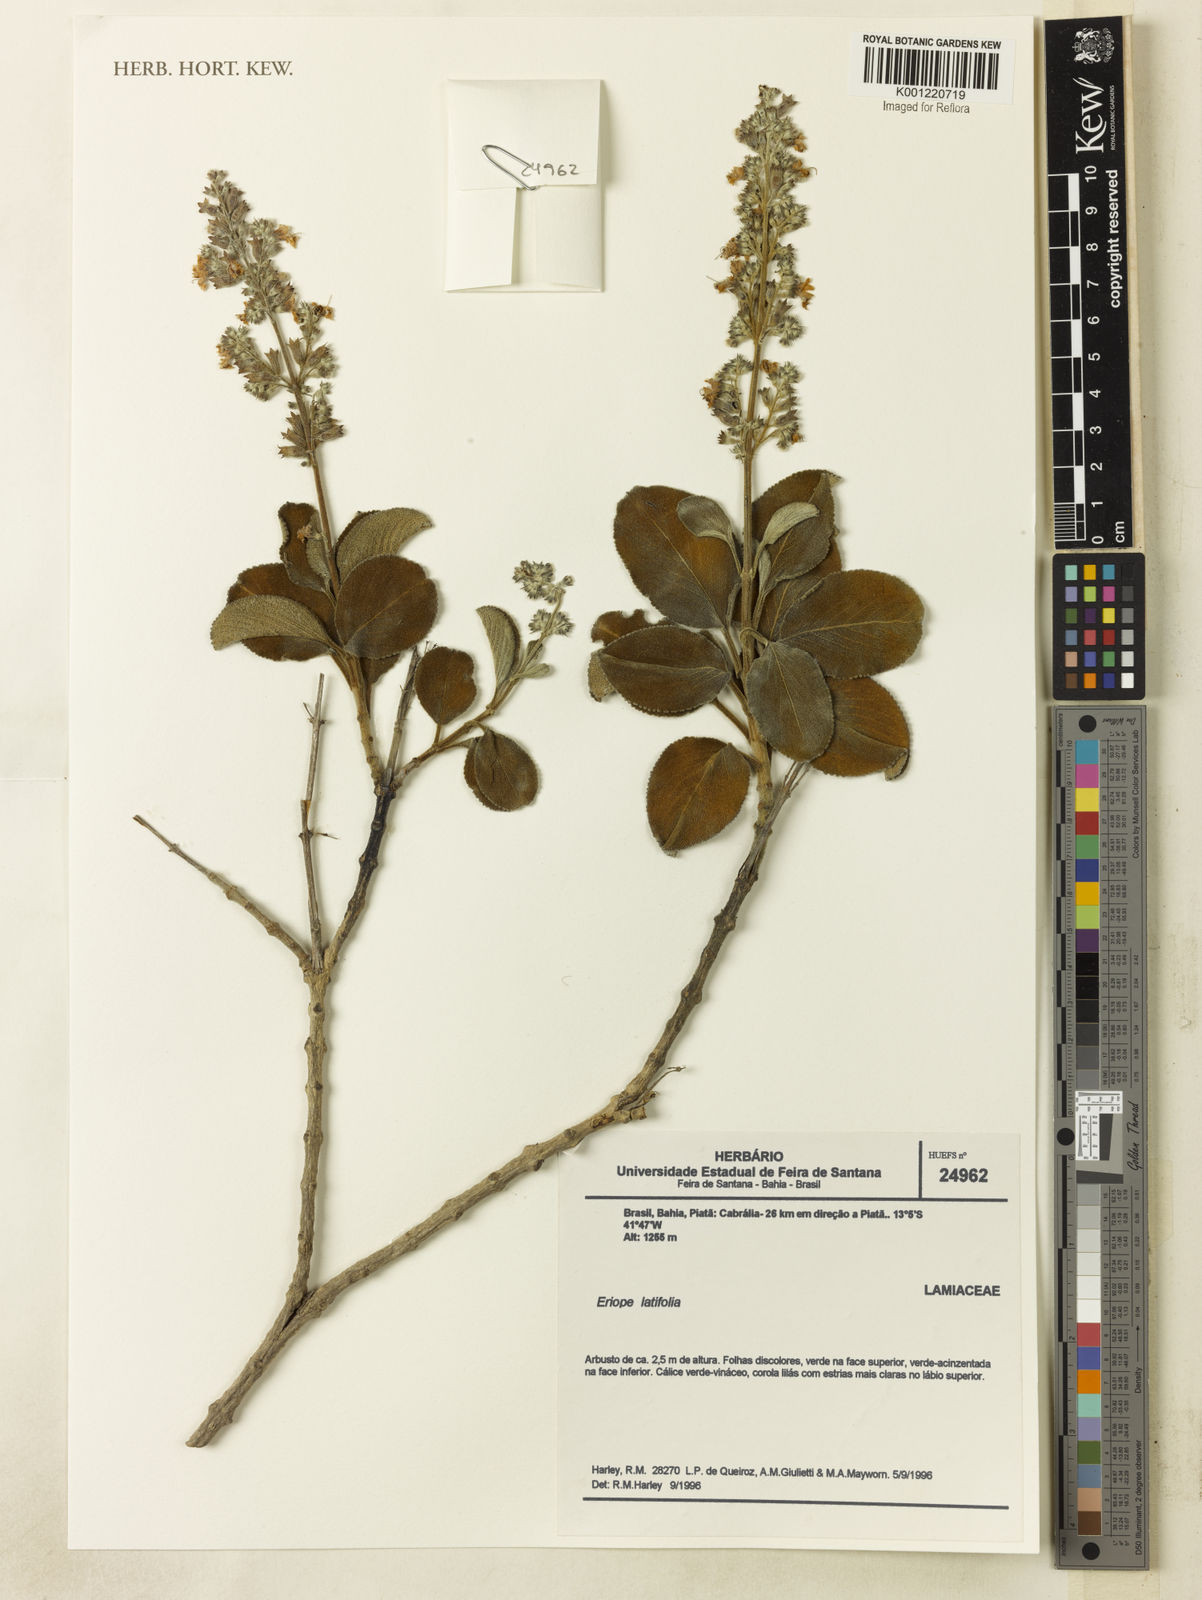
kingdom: Plantae
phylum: Tracheophyta
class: Magnoliopsida
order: Lamiales
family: Lamiaceae
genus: Eriope
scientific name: Eriope latifolia
